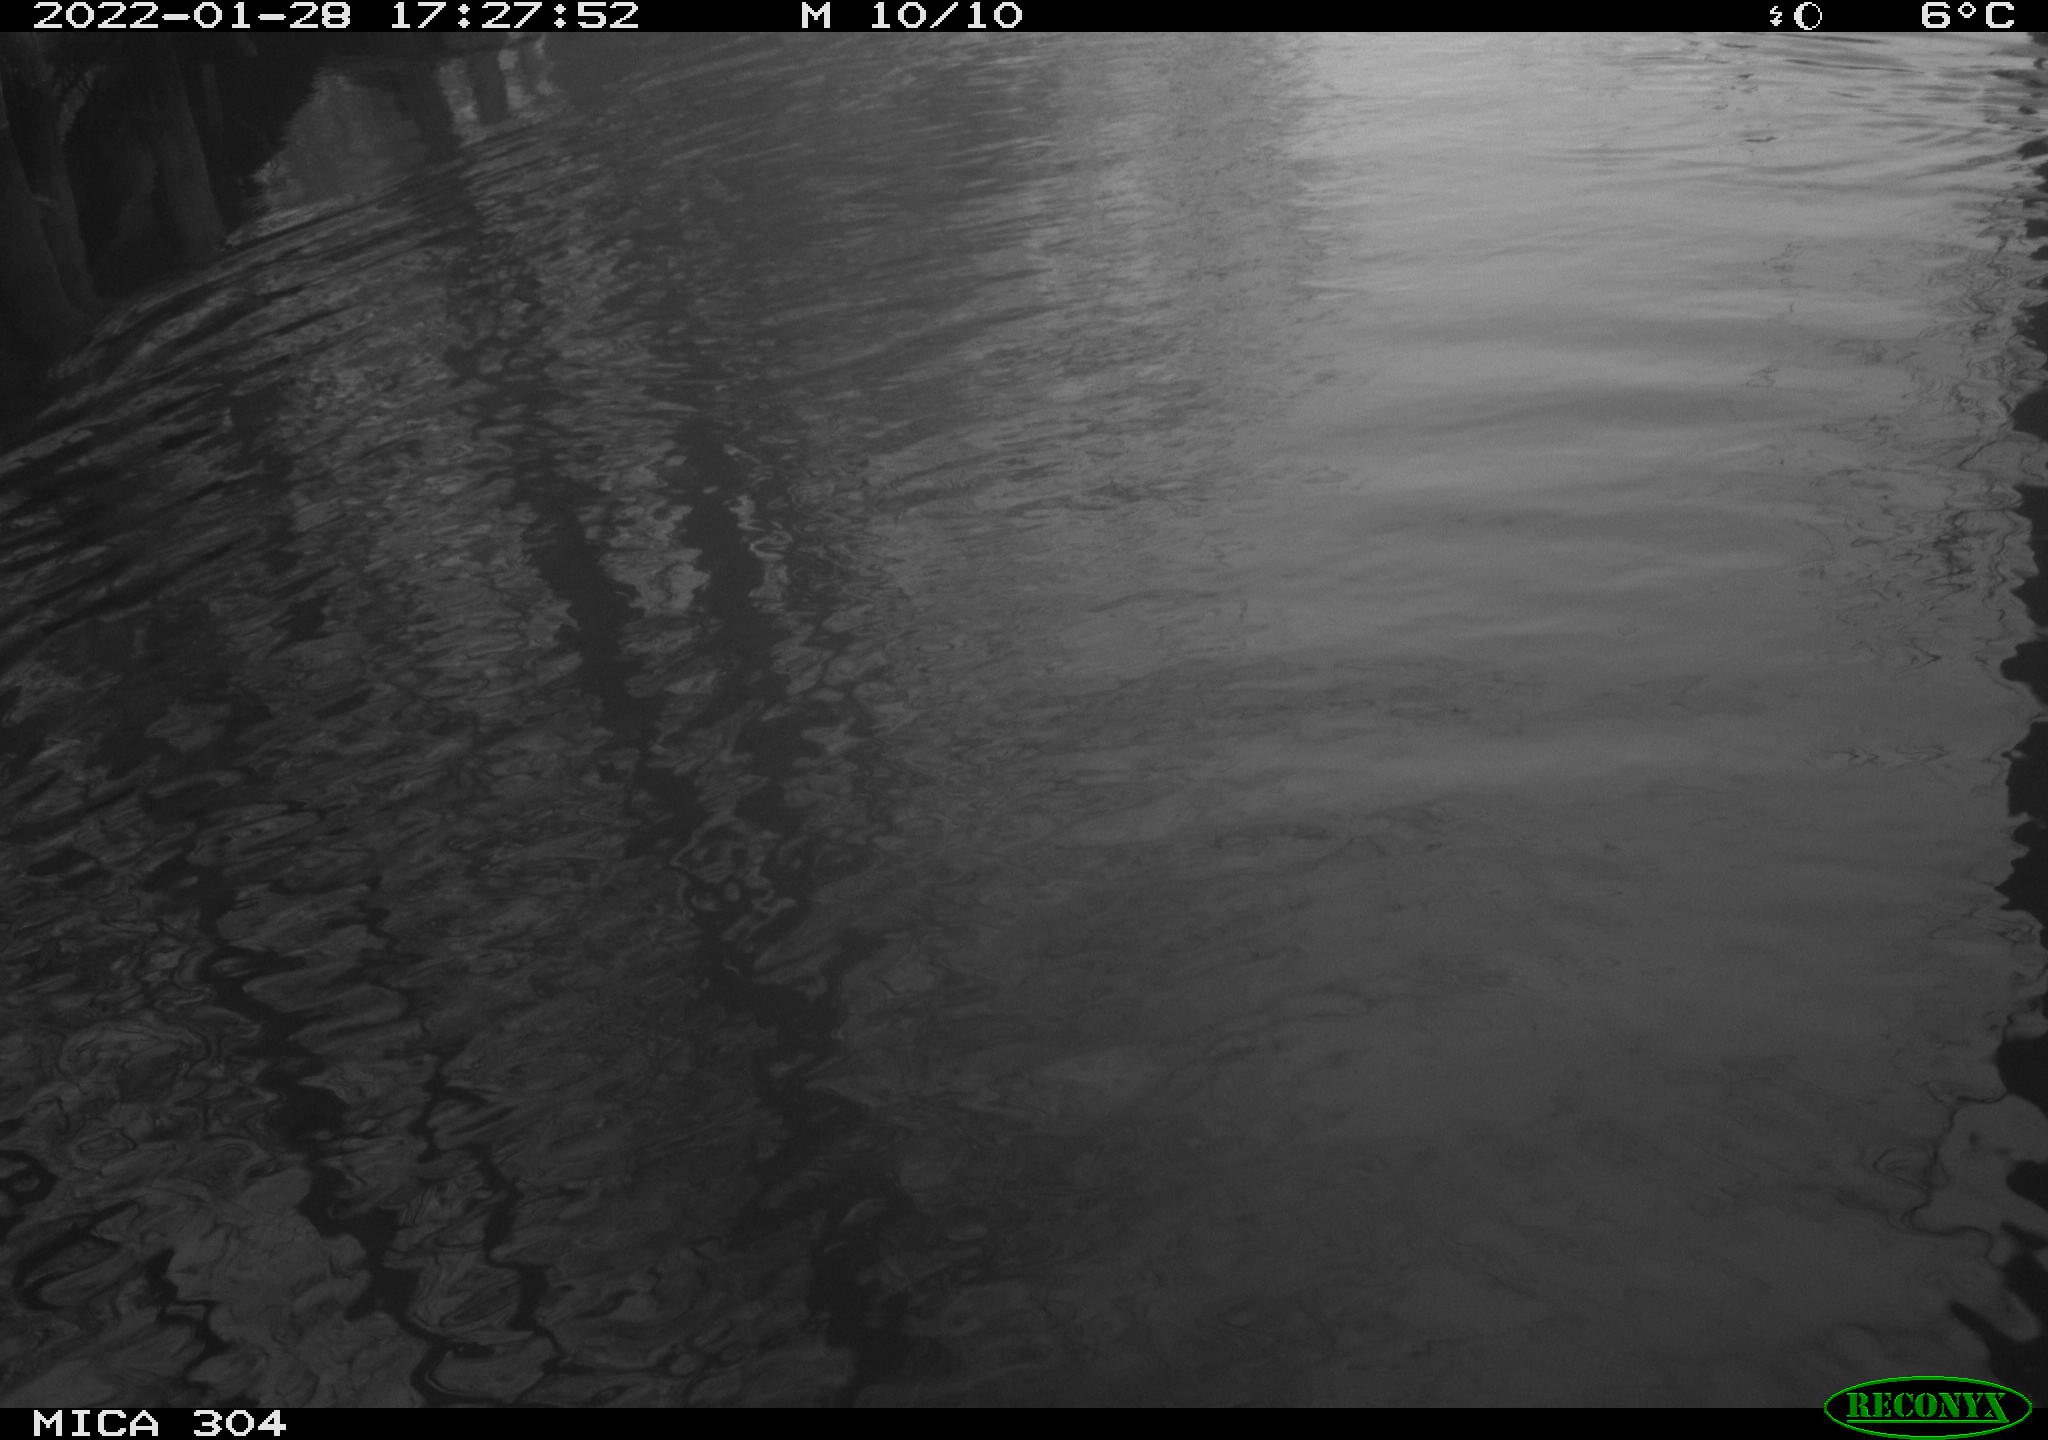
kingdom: Animalia
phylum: Chordata
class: Aves
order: Anseriformes
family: Anatidae
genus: Anas
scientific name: Anas
